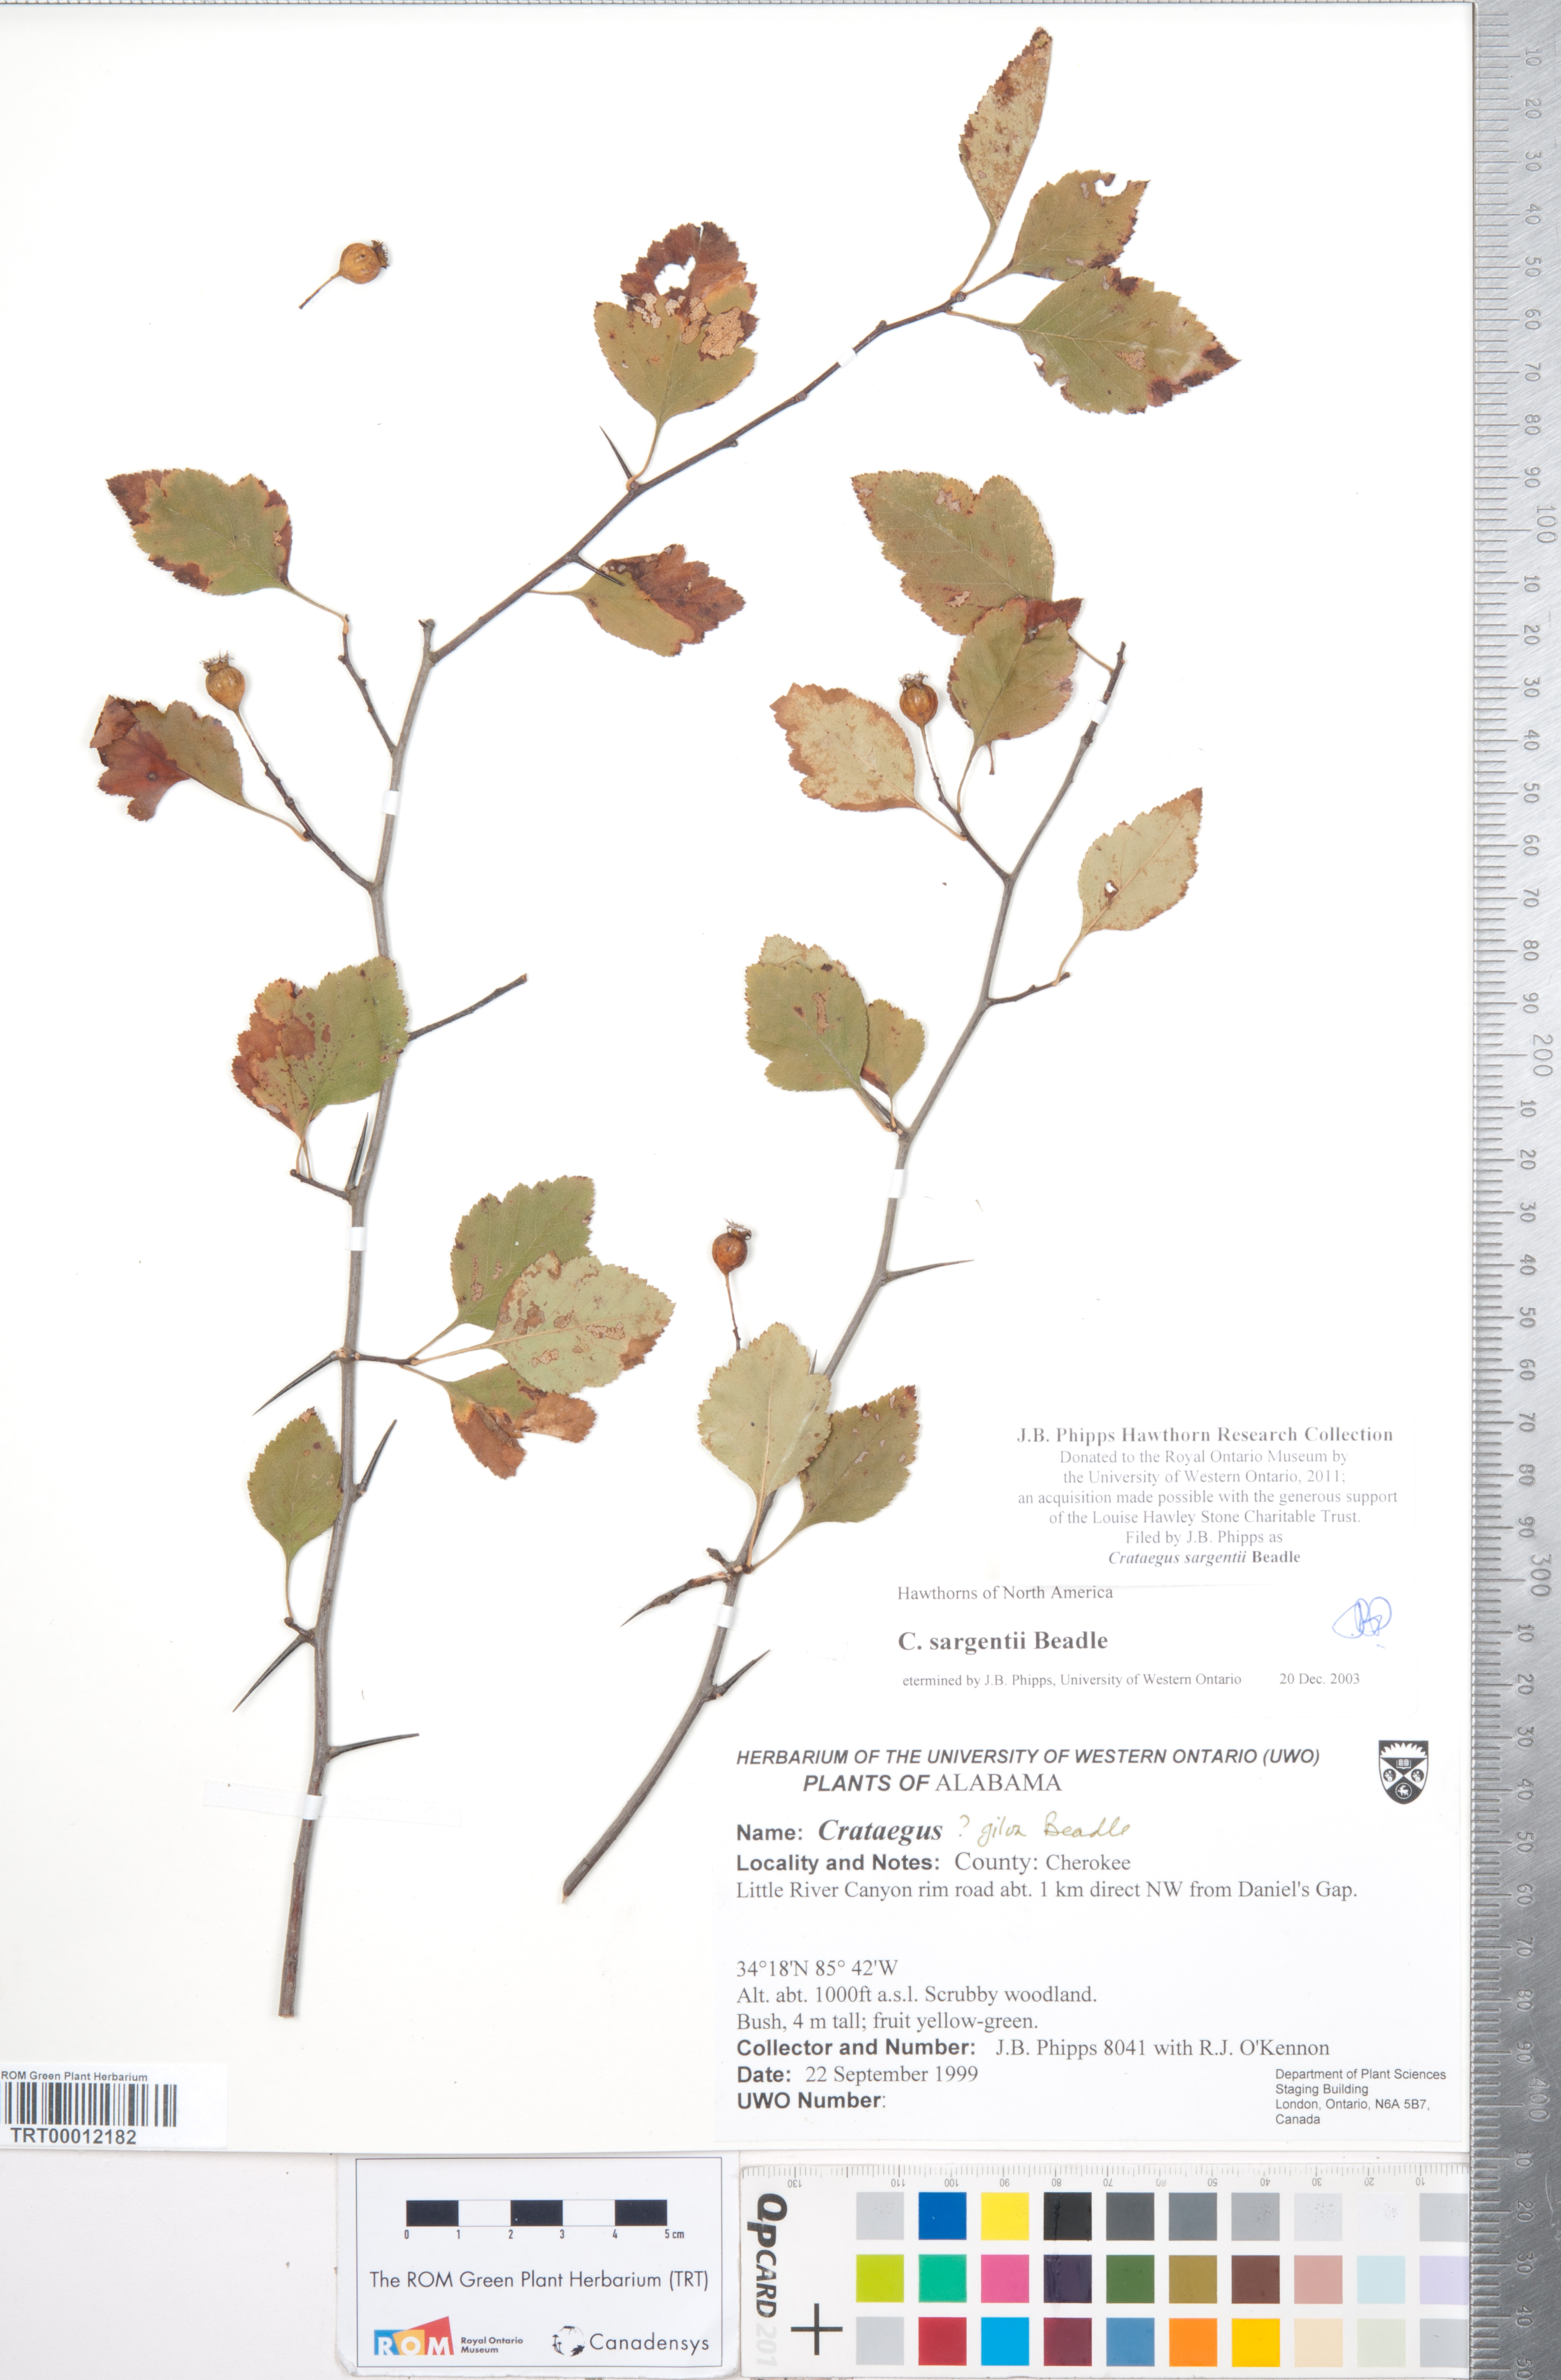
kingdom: Plantae
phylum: Tracheophyta
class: Magnoliopsida
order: Rosales
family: Rosaceae
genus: Crataegus
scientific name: Crataegus sargentii
